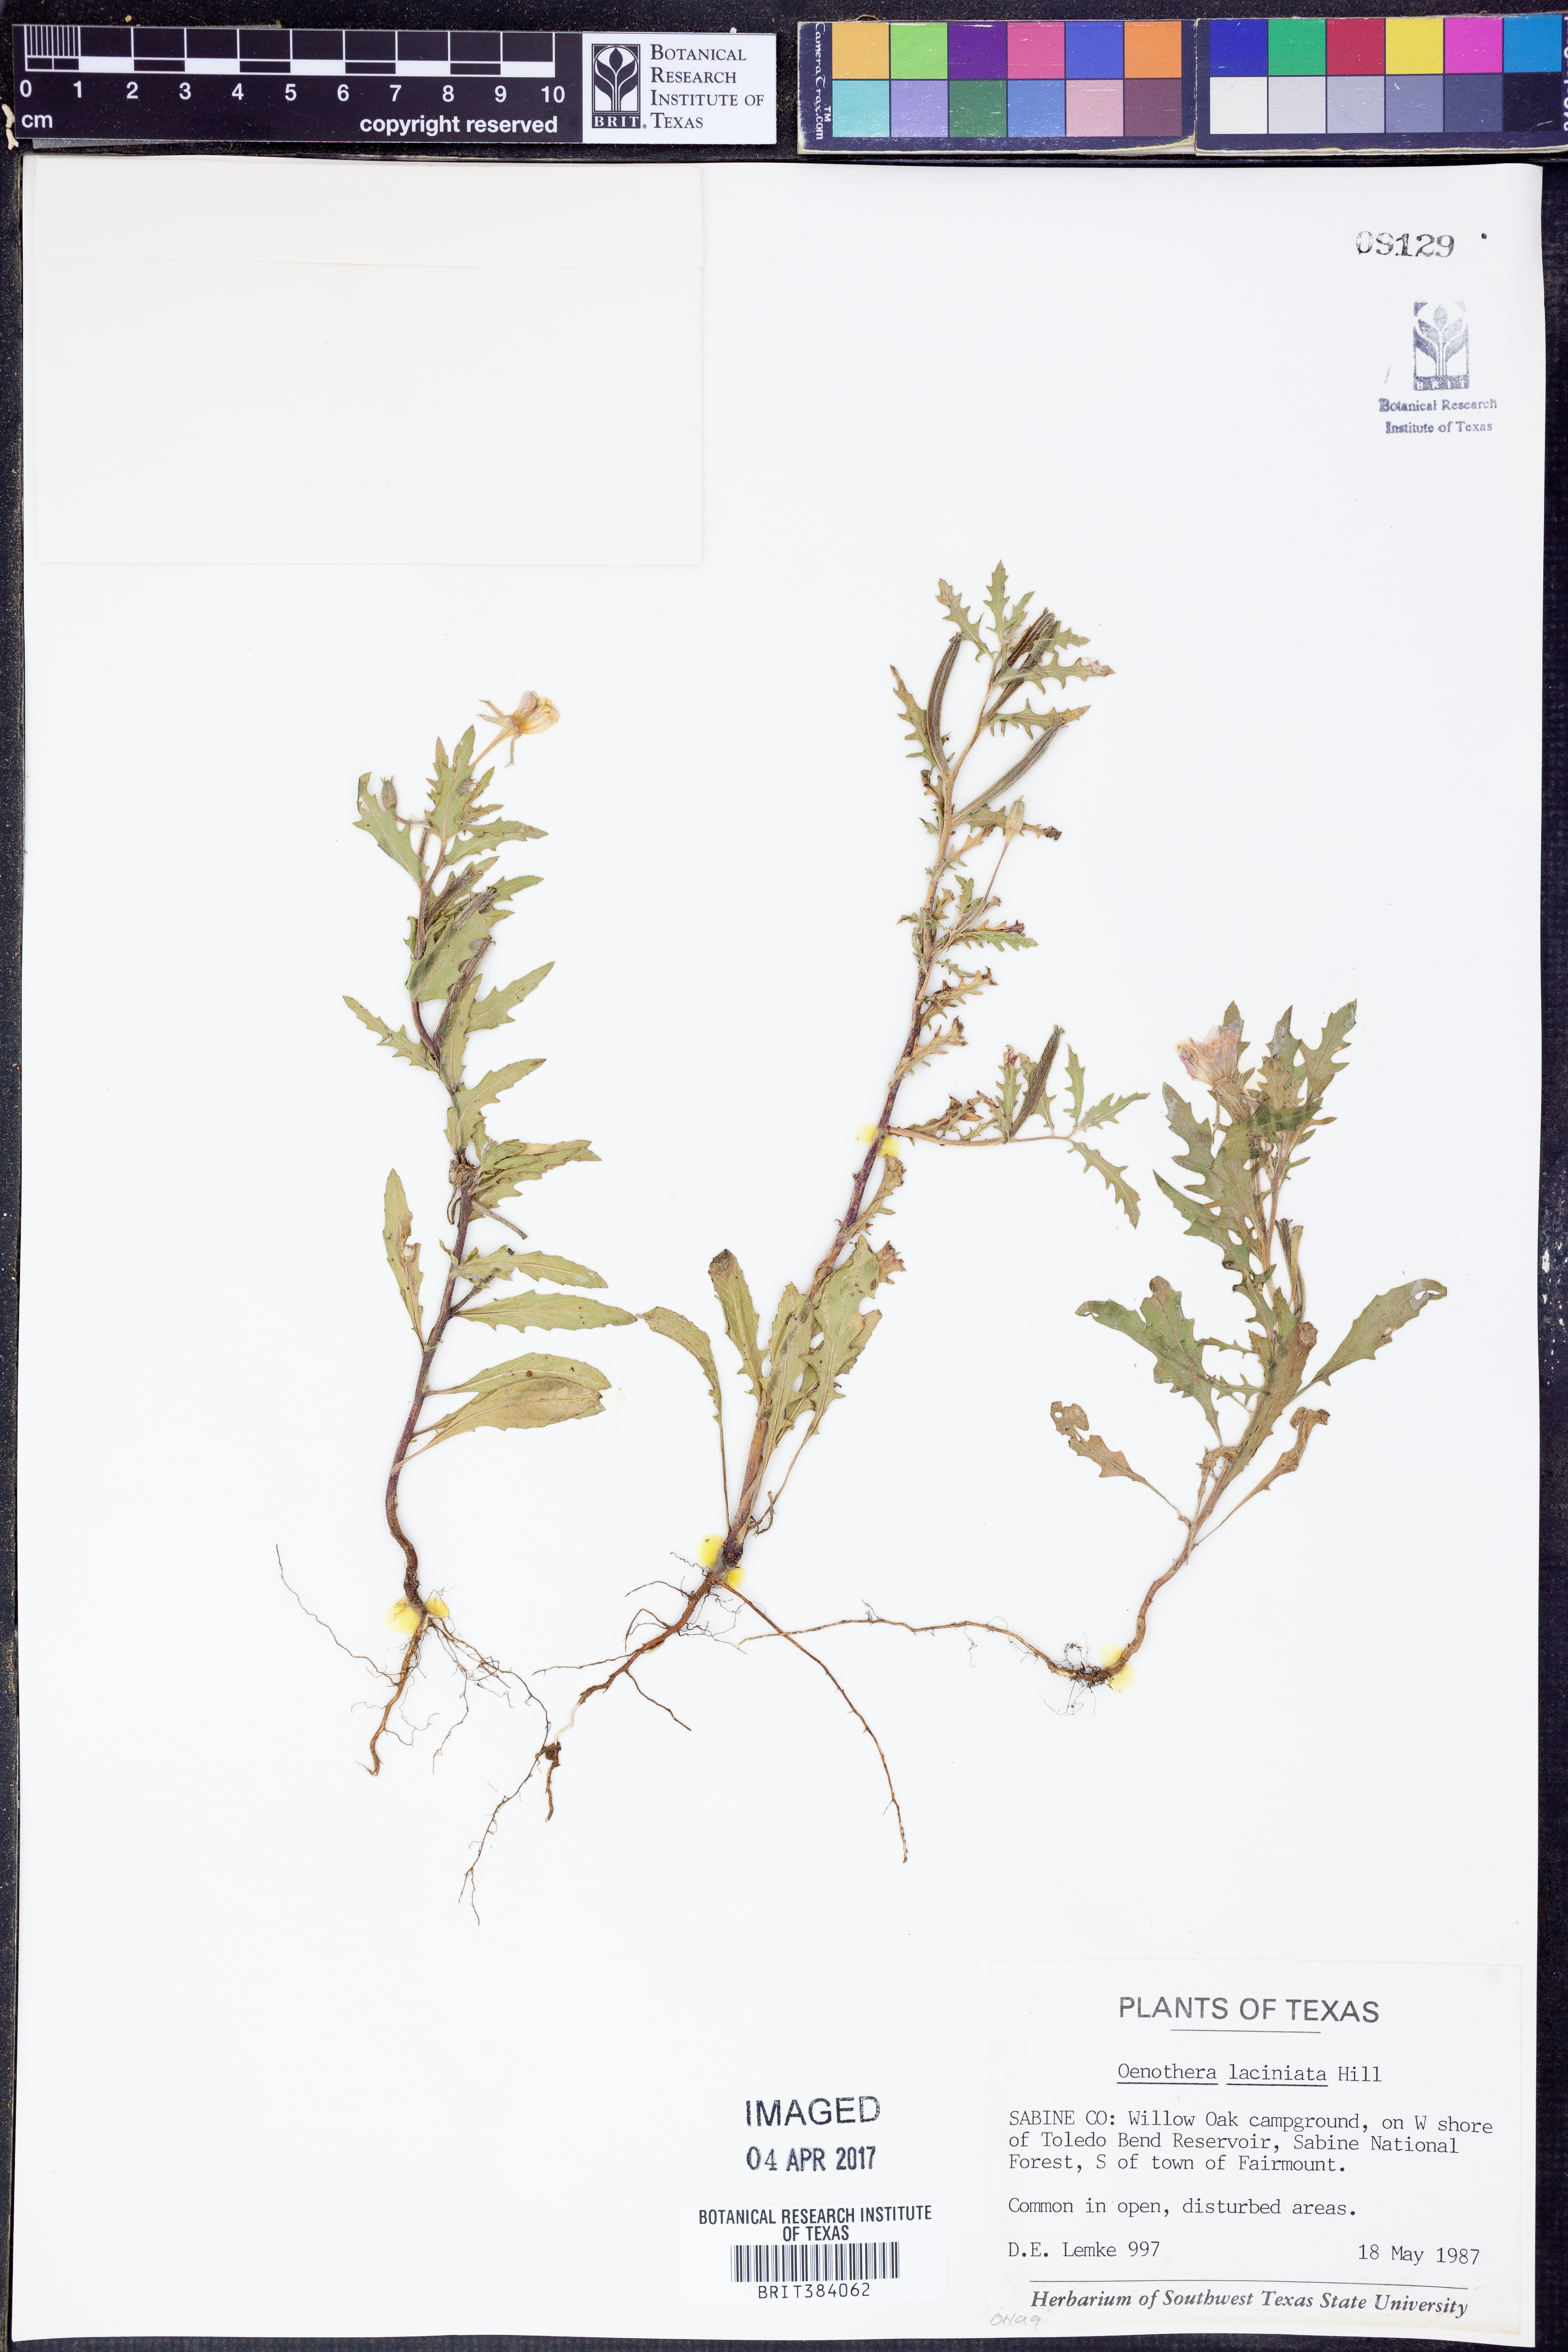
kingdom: Plantae
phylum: Tracheophyta
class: Magnoliopsida
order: Myrtales
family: Onagraceae
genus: Oenothera
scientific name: Oenothera laciniata
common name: Cut-leaved evening-primrose
